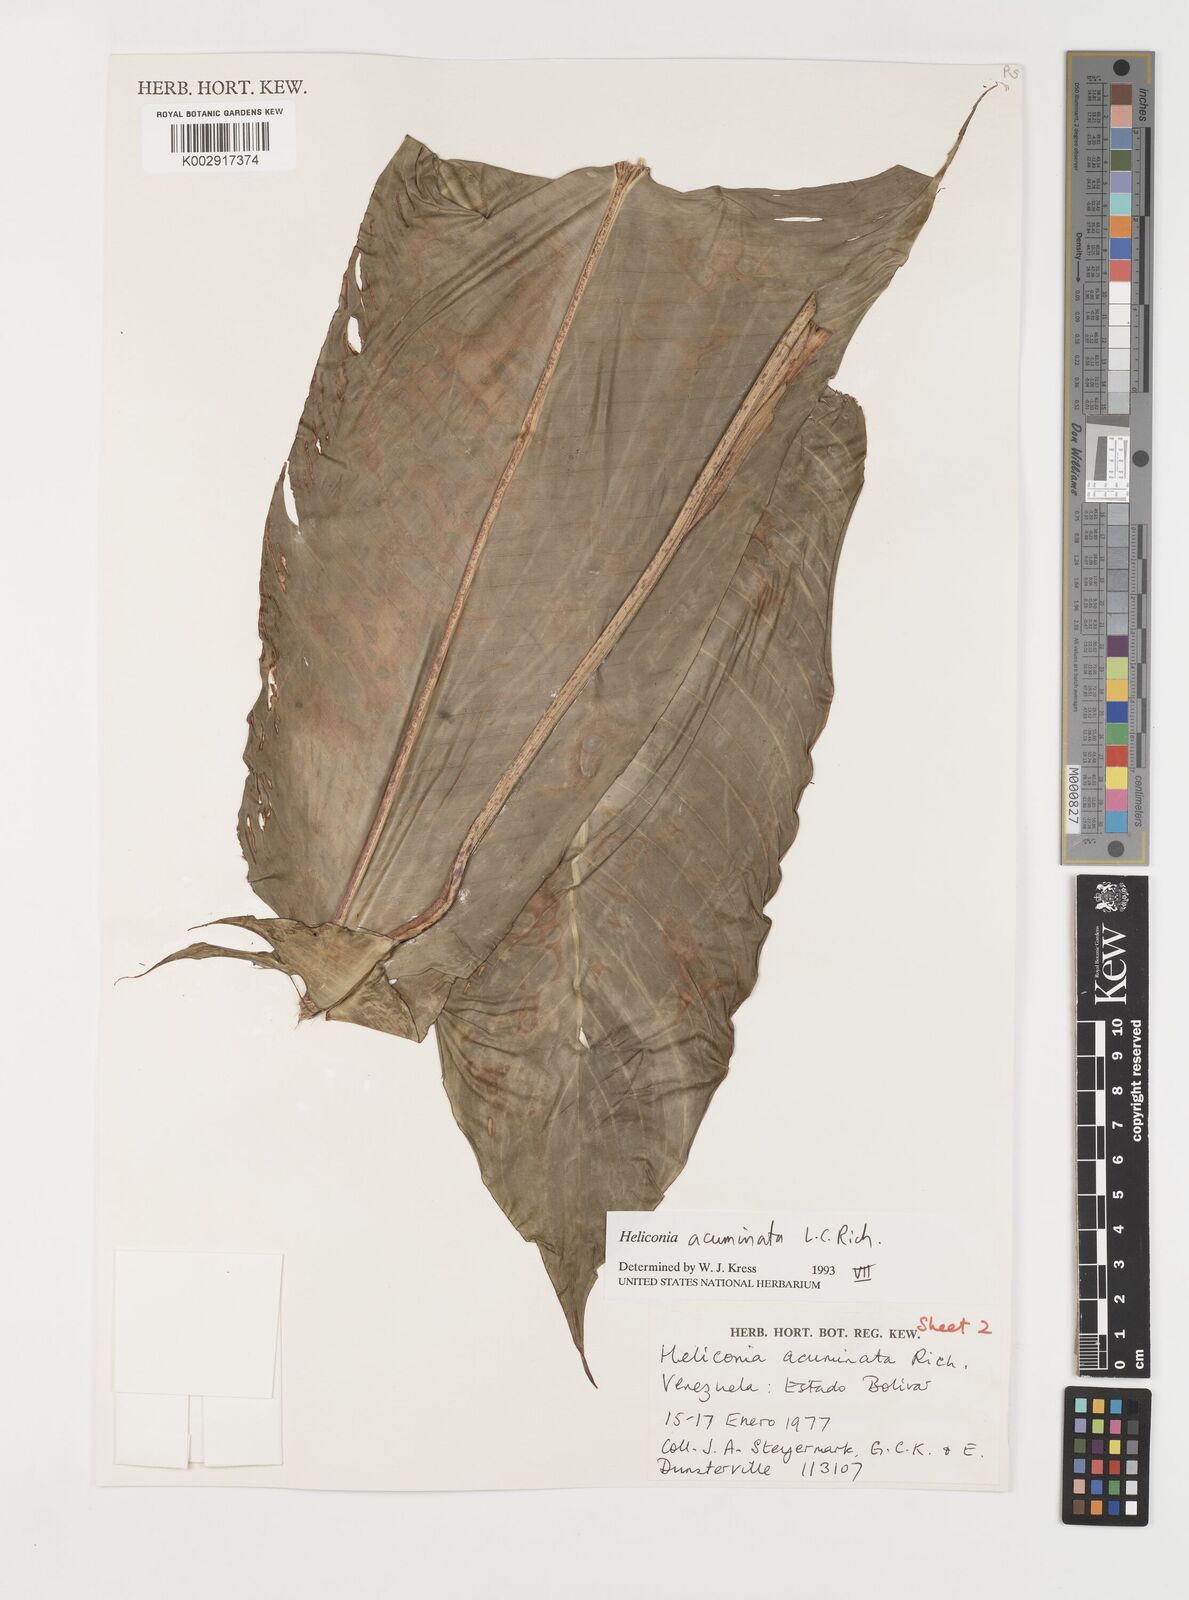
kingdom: Plantae
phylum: Tracheophyta
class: Liliopsida
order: Zingiberales
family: Heliconiaceae
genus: Heliconia
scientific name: Heliconia acuminata
